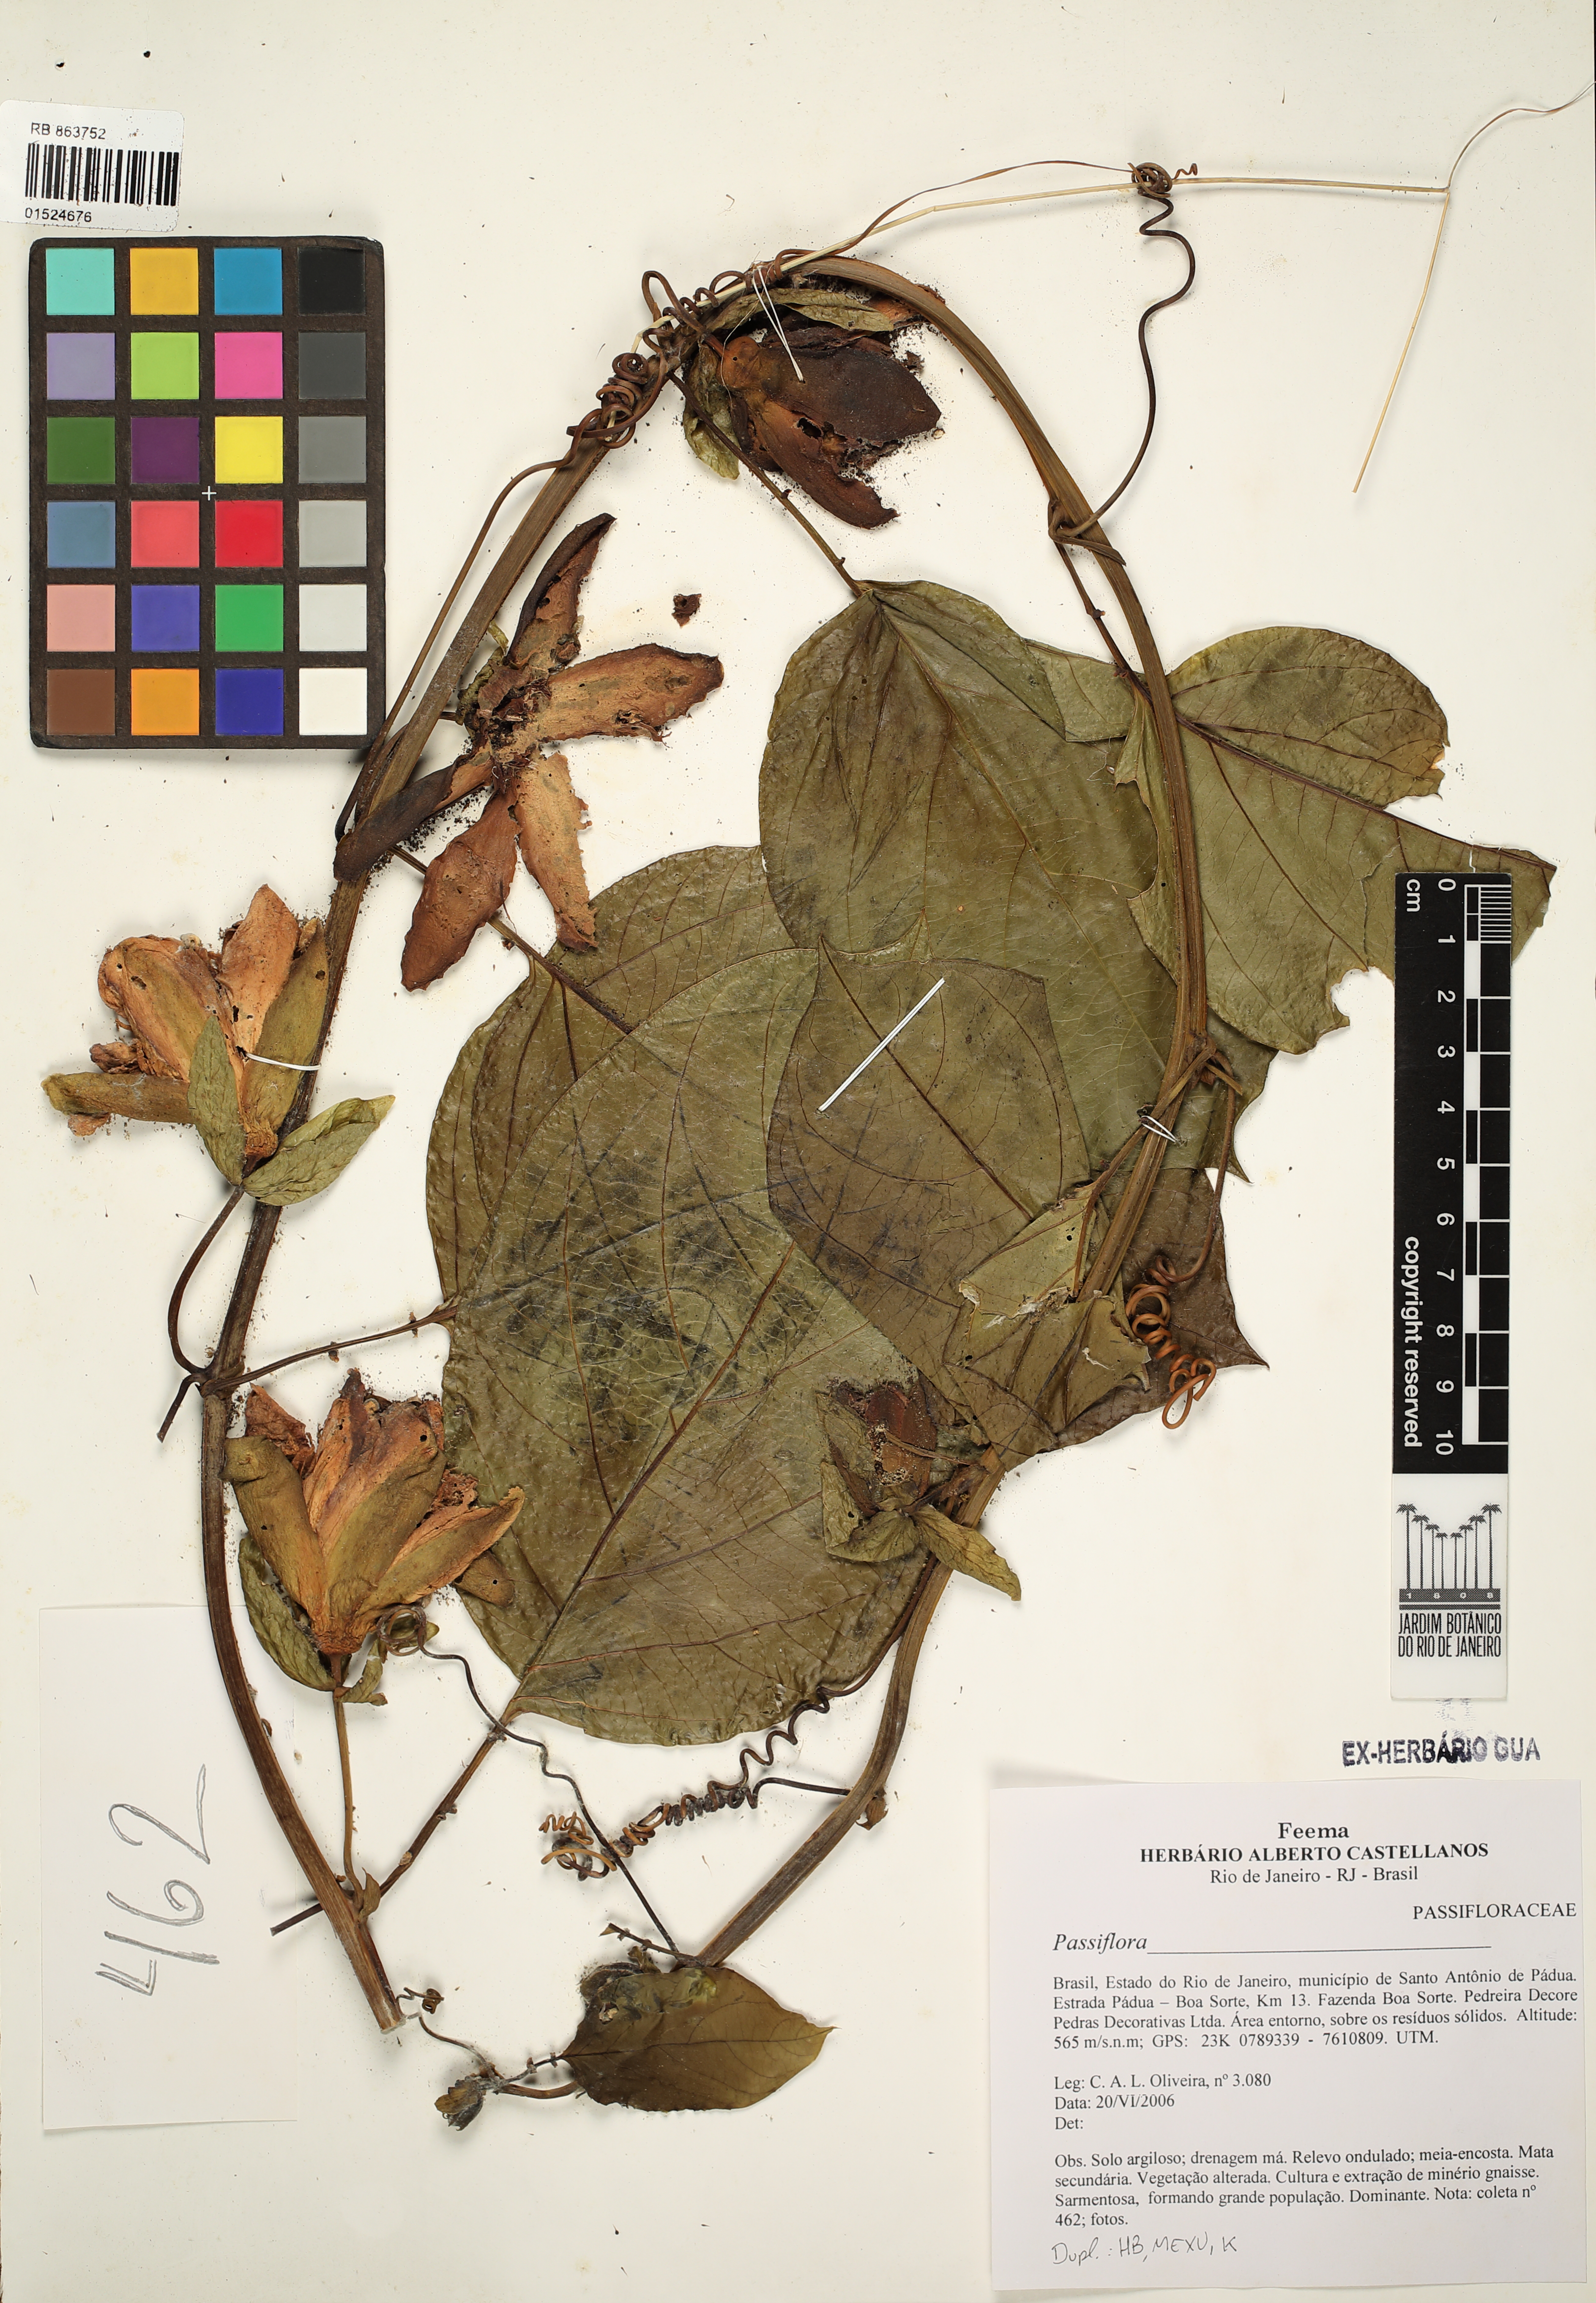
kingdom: Plantae
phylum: Tracheophyta
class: Magnoliopsida
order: Malpighiales
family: Passifloraceae
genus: Passiflora
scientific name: Passiflora
